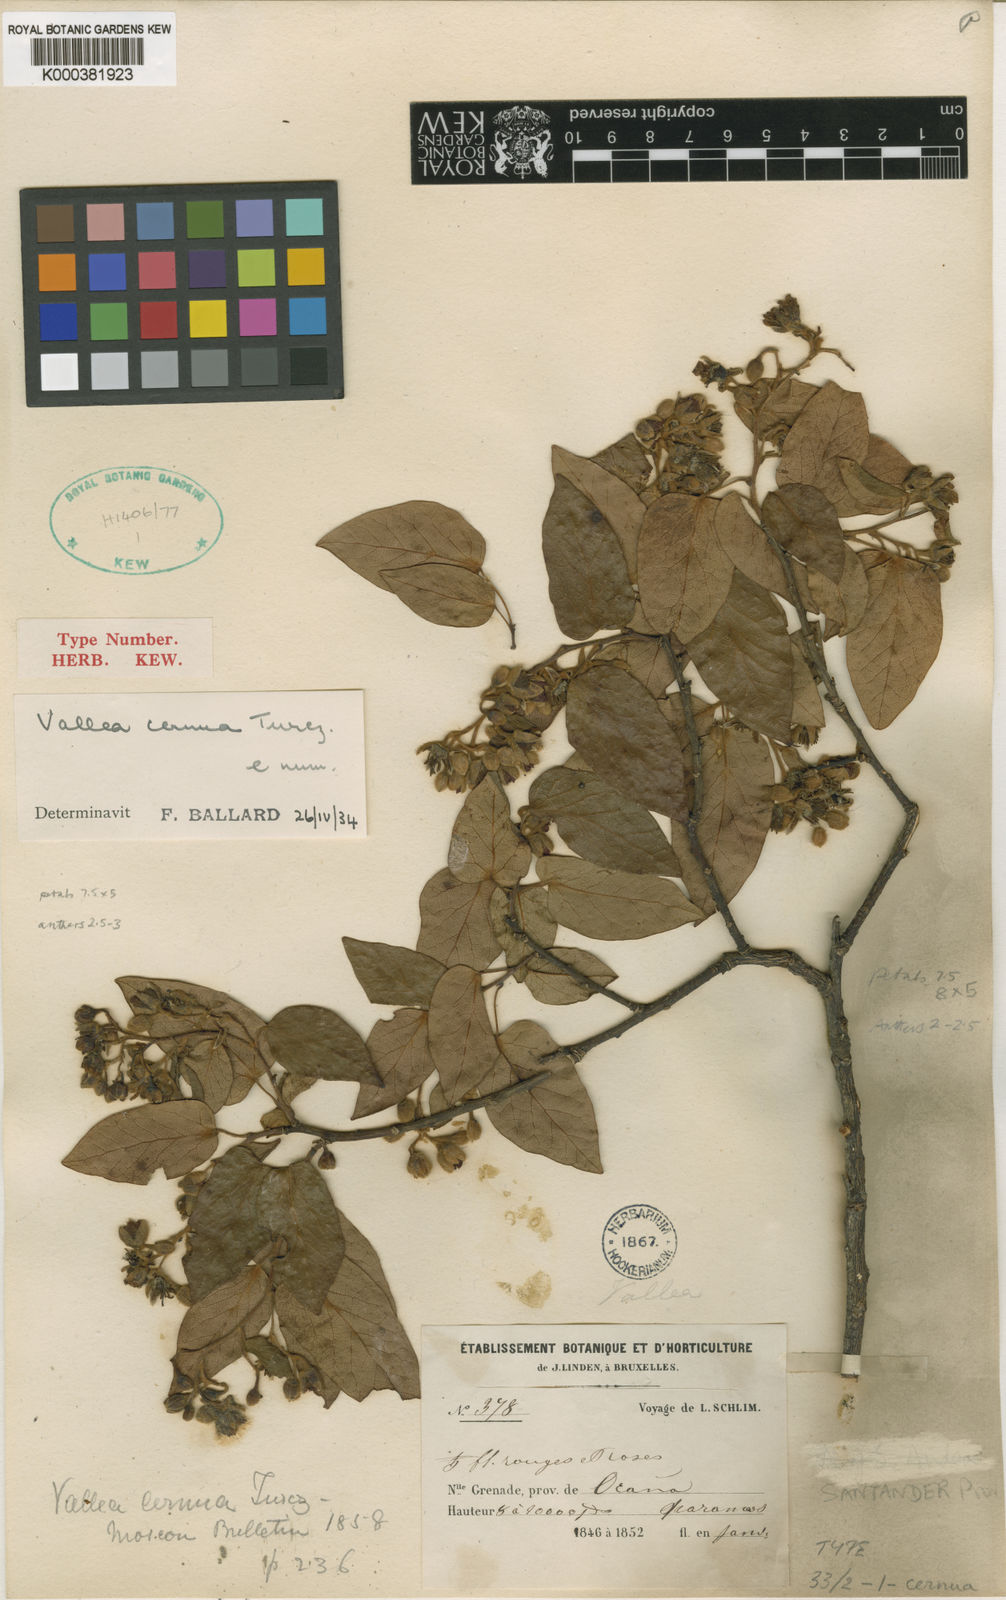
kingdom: Plantae
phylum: Tracheophyta
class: Magnoliopsida
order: Oxalidales
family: Elaeocarpaceae
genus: Vallea
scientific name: Vallea stipularis
